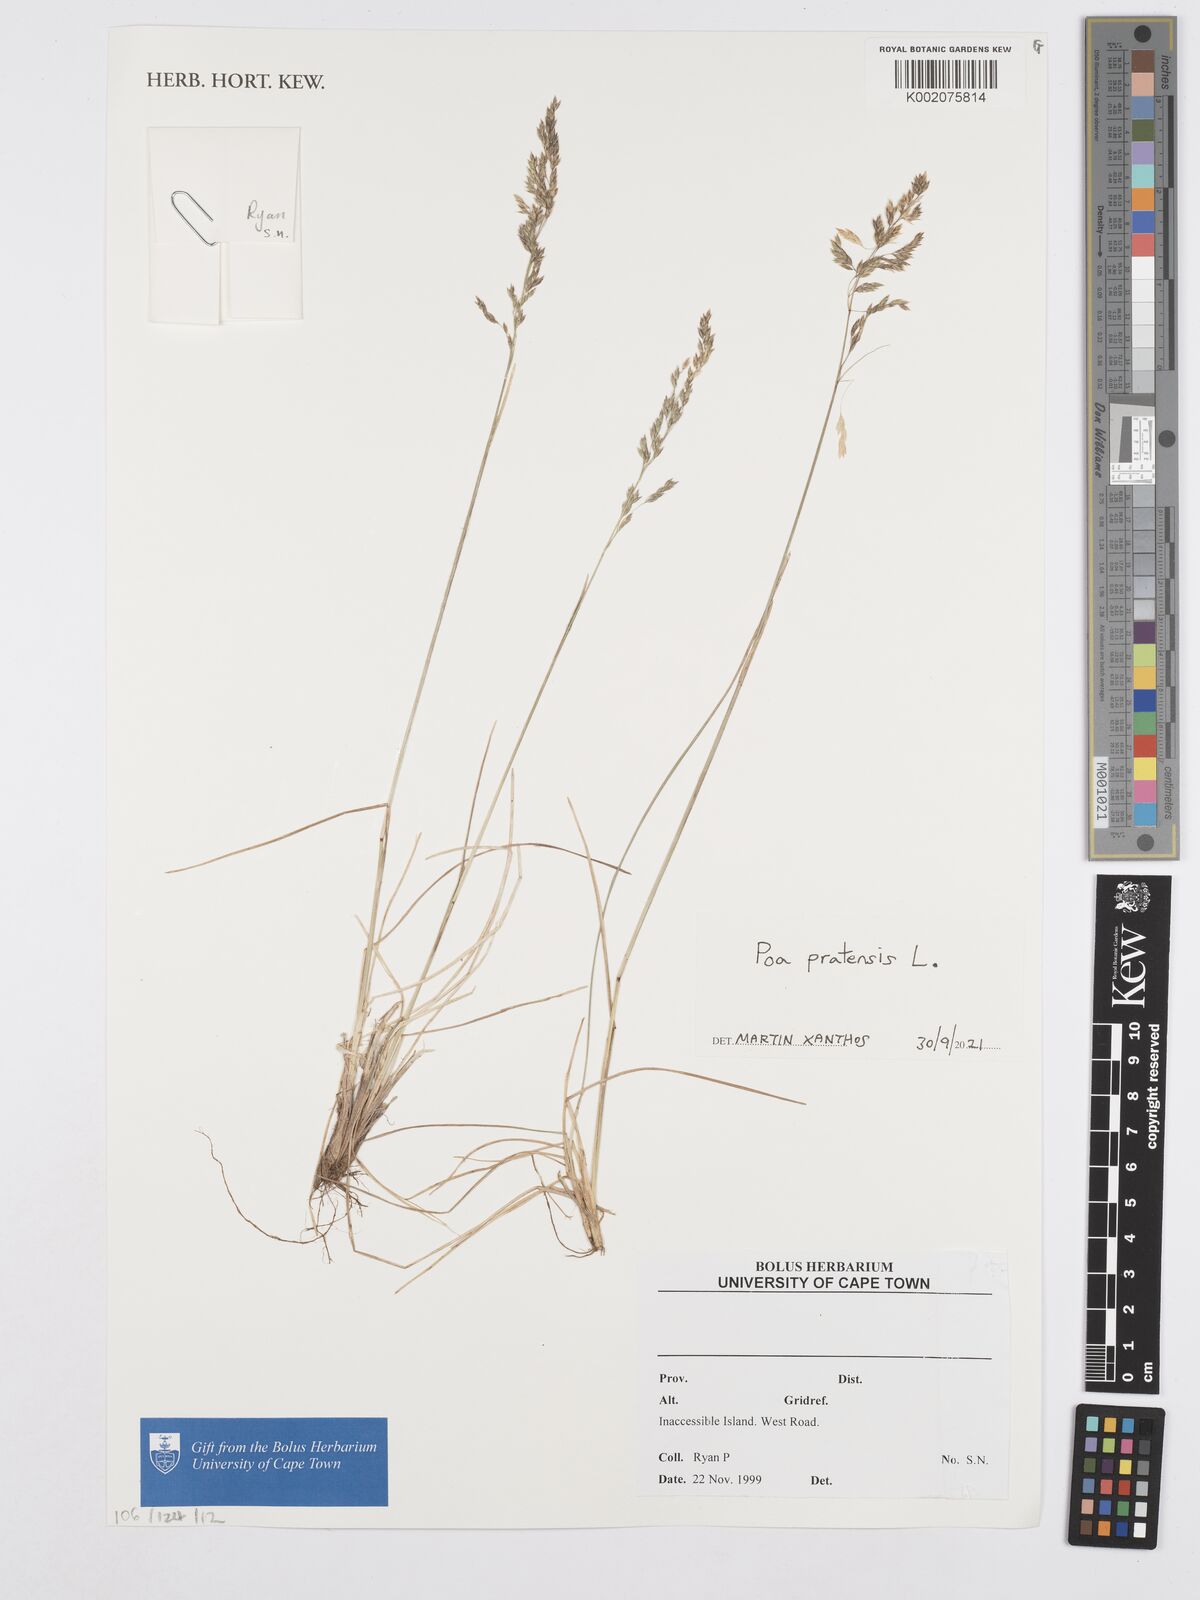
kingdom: Plantae
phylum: Tracheophyta
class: Liliopsida
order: Poales
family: Poaceae
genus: Poa
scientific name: Poa pratensis
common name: Kentucky bluegrass
